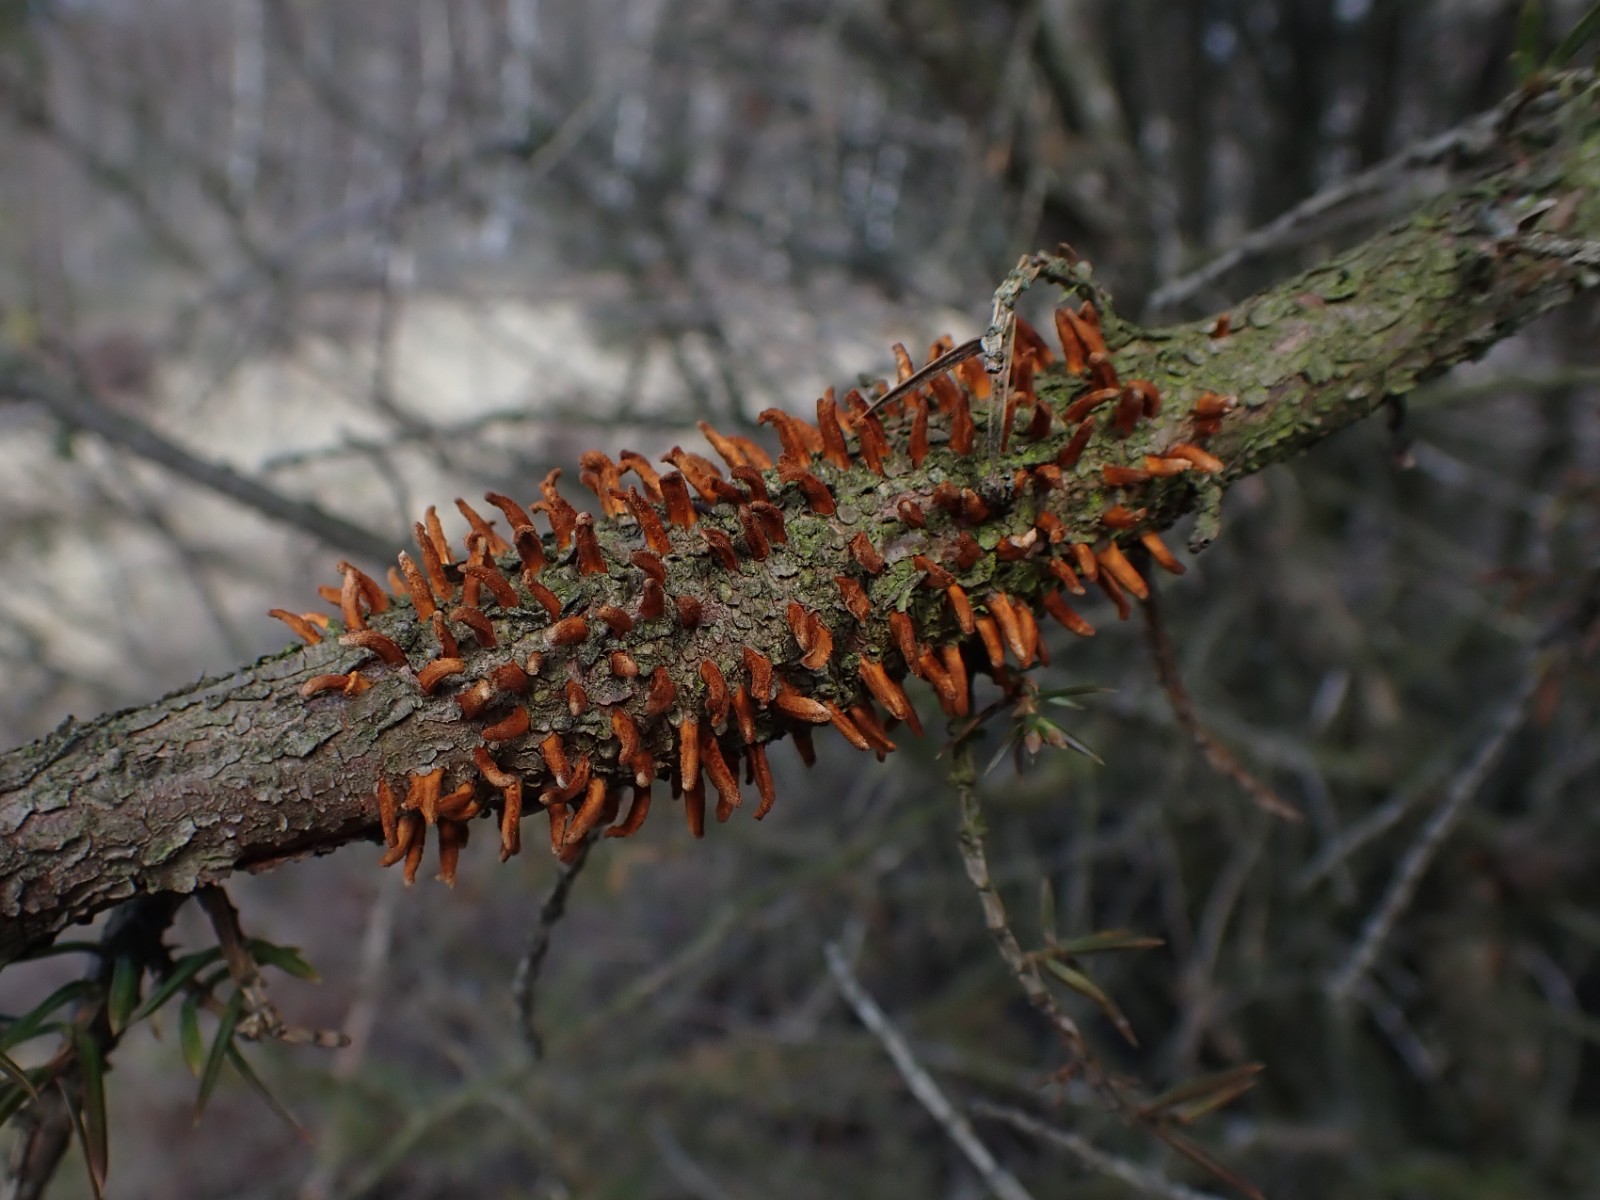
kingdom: Fungi
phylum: Basidiomycota
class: Pucciniomycetes
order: Pucciniales
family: Gymnosporangiaceae
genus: Gymnosporangium
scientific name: Gymnosporangium clavariiforme
